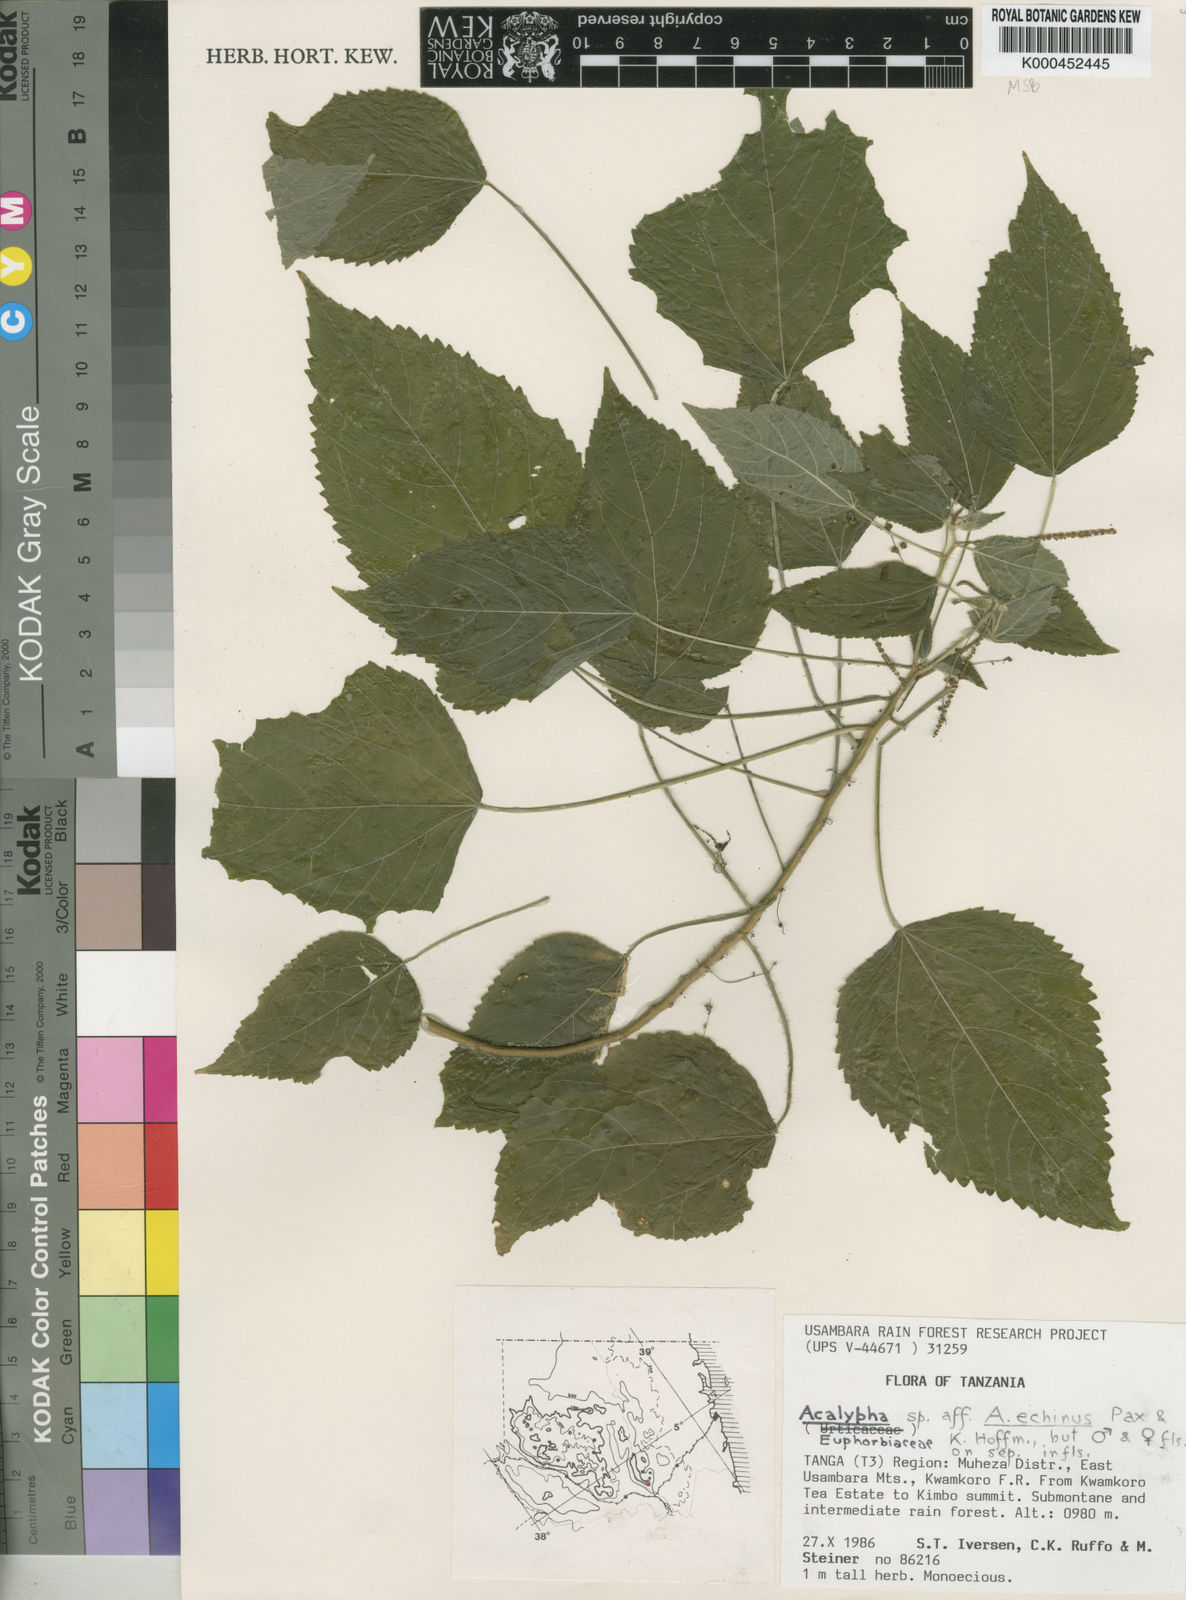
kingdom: Plantae
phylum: Tracheophyta
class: Magnoliopsida
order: Malpighiales
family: Euphorbiaceae
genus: Acalypha
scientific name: Acalypha echinus
